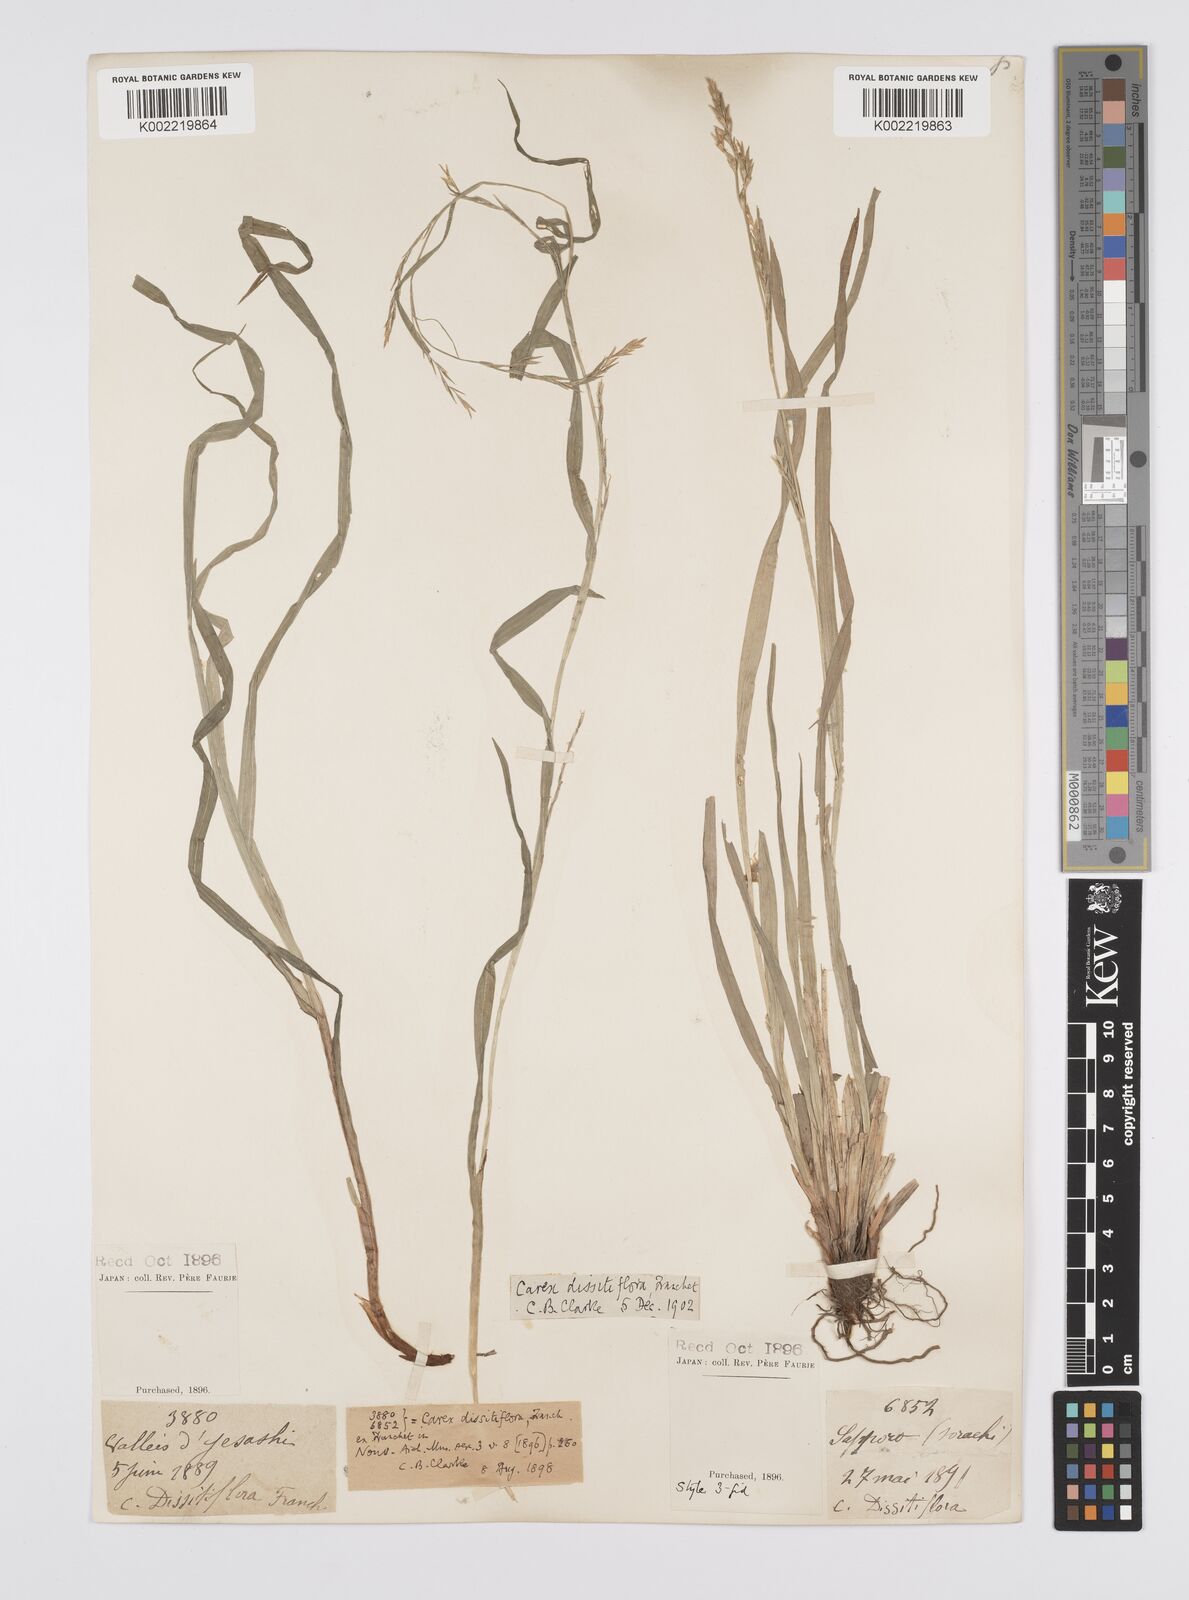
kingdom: Plantae
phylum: Tracheophyta
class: Liliopsida
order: Poales
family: Cyperaceae
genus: Carex
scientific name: Carex dissitiflora
